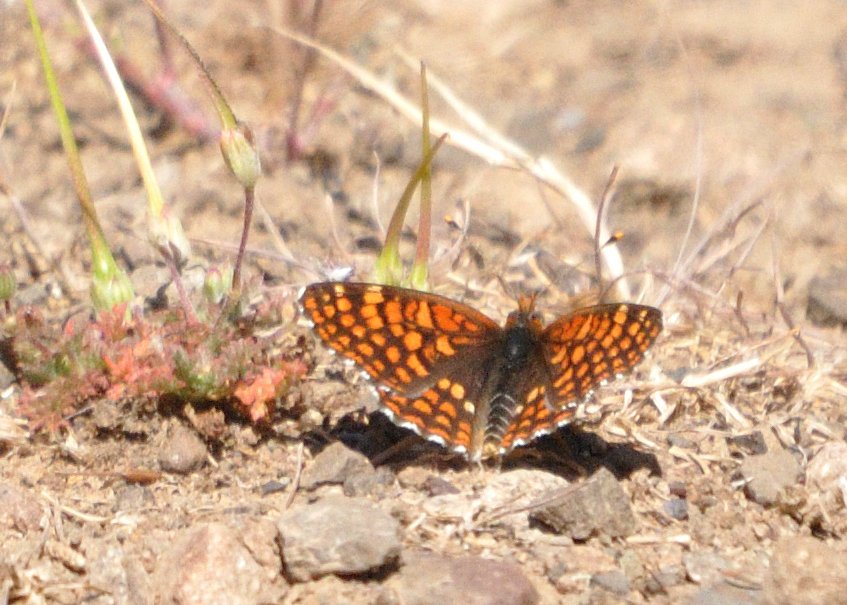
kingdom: Animalia
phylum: Arthropoda
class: Insecta
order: Lepidoptera
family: Nymphalidae
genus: Chlosyne
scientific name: Chlosyne palla
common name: Northern Checkerspot
